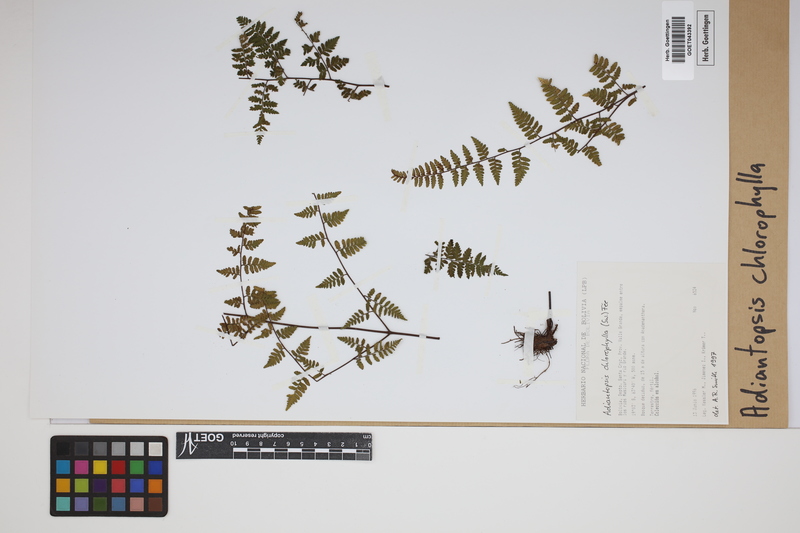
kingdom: Plantae
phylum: Tracheophyta
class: Polypodiopsida
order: Polypodiales
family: Pteridaceae
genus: Adiantopsis
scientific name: Adiantopsis chlorophylla
